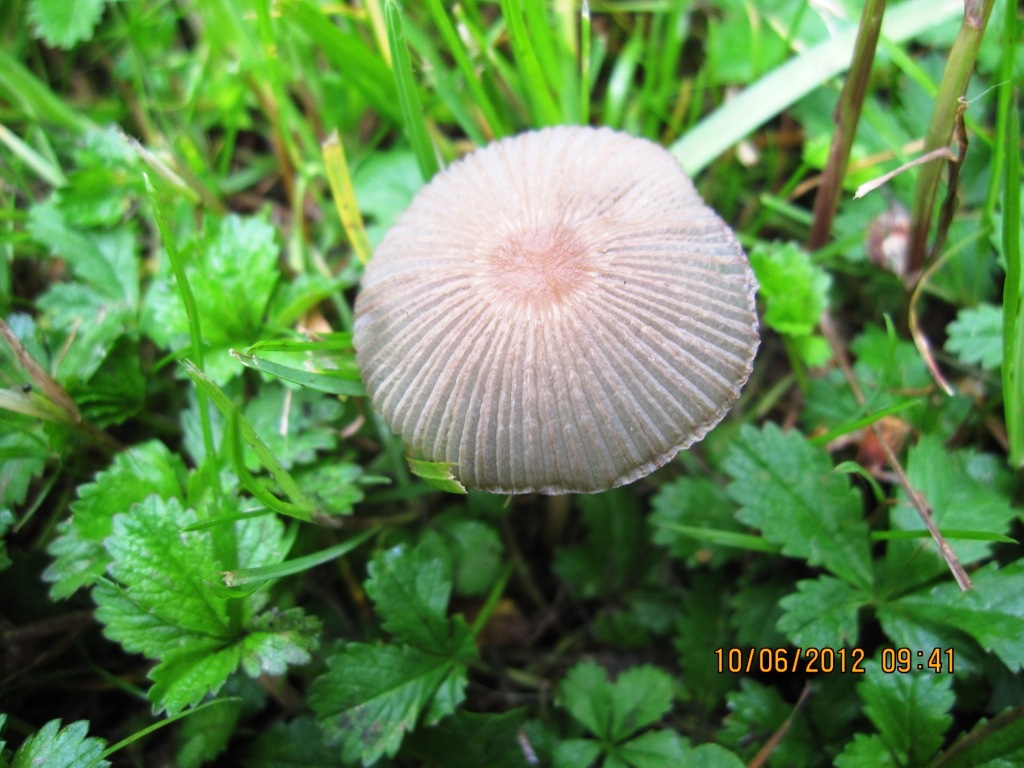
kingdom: Fungi
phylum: Basidiomycota
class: Agaricomycetes
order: Agaricales
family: Psathyrellaceae
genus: Parasola
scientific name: Parasola kuehneri
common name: skygge-hjulhat
